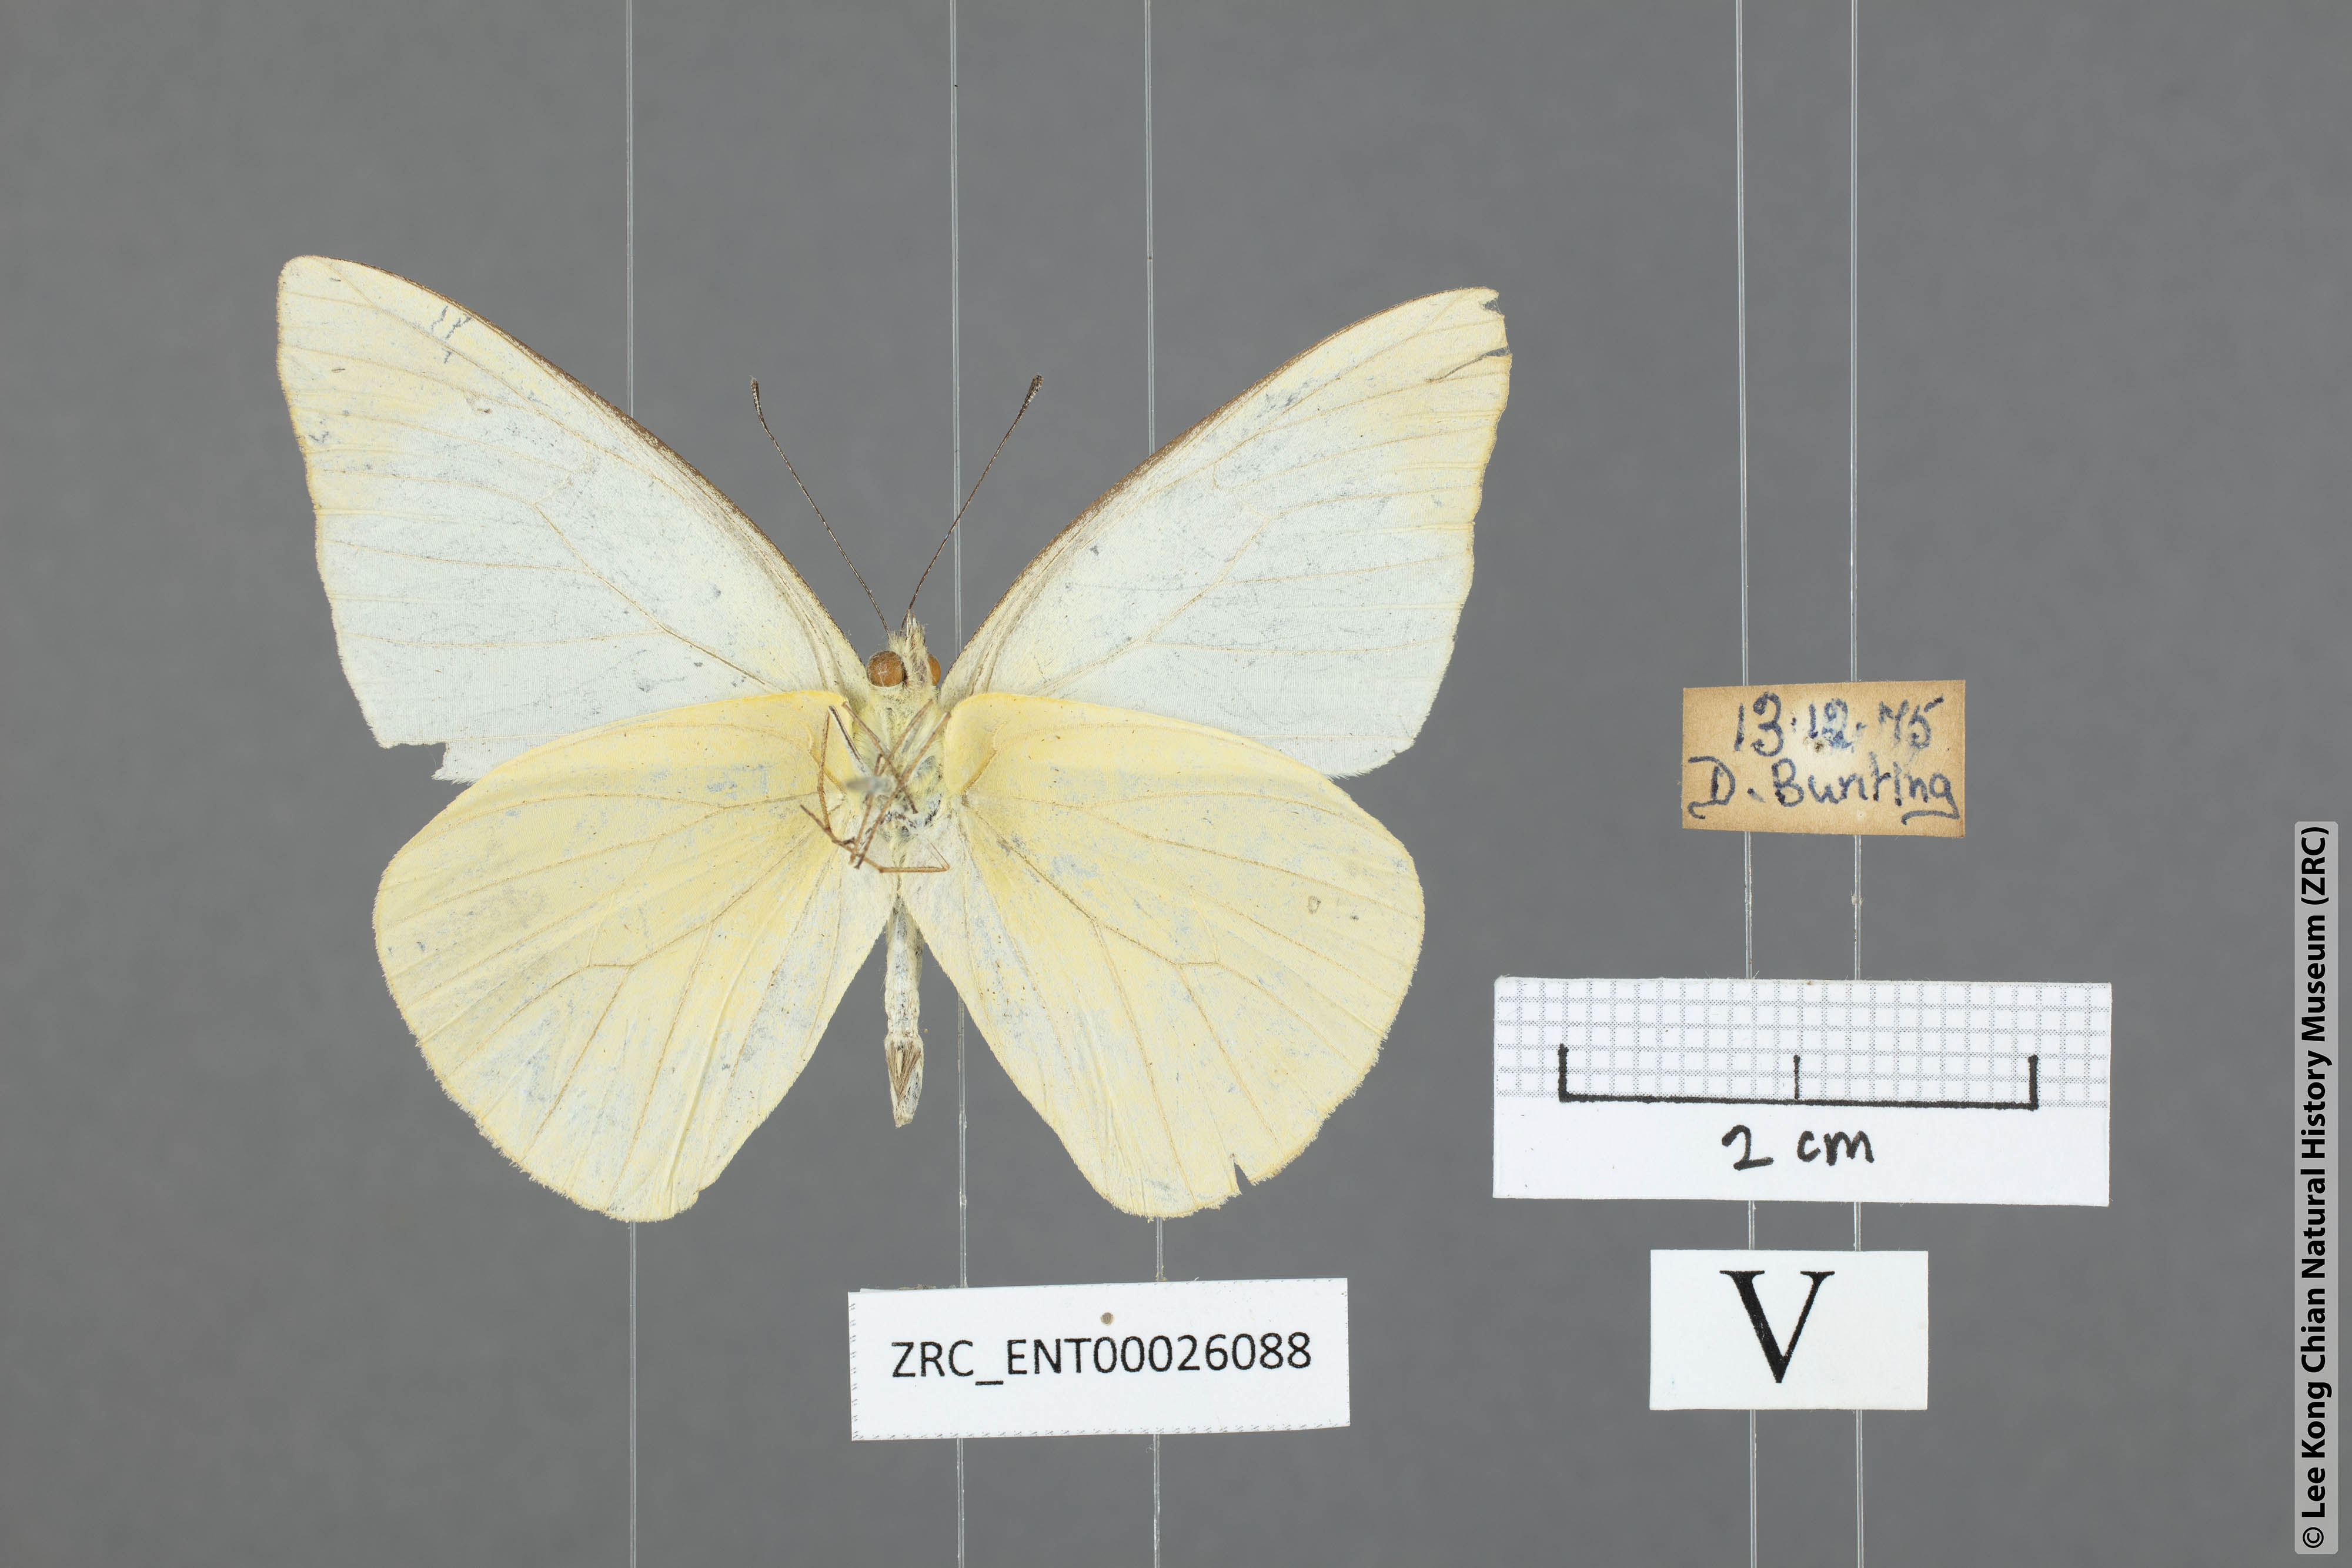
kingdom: Animalia
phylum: Arthropoda
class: Insecta
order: Lepidoptera
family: Pieridae
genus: Appias
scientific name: Appias albina
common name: Common albatross
